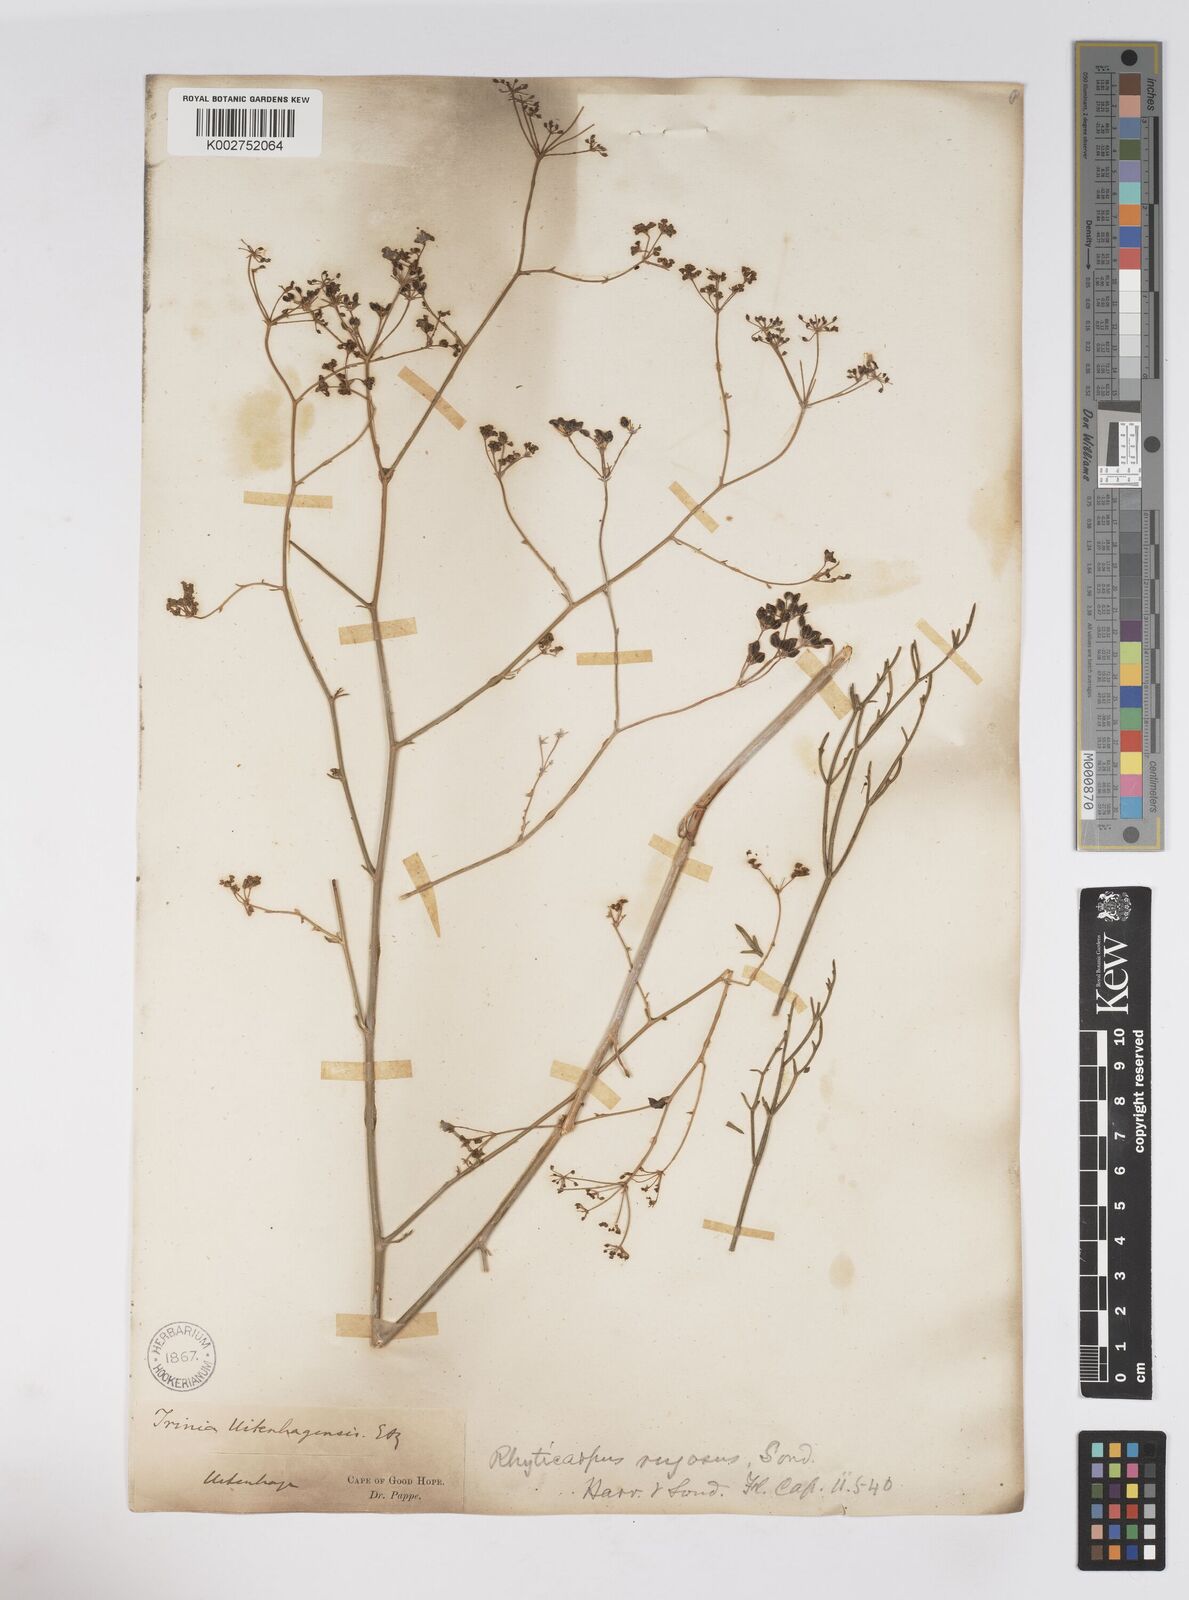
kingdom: Plantae
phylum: Tracheophyta
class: Magnoliopsida
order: Apiales
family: Apiaceae
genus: Anginon
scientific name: Anginon rugosum
